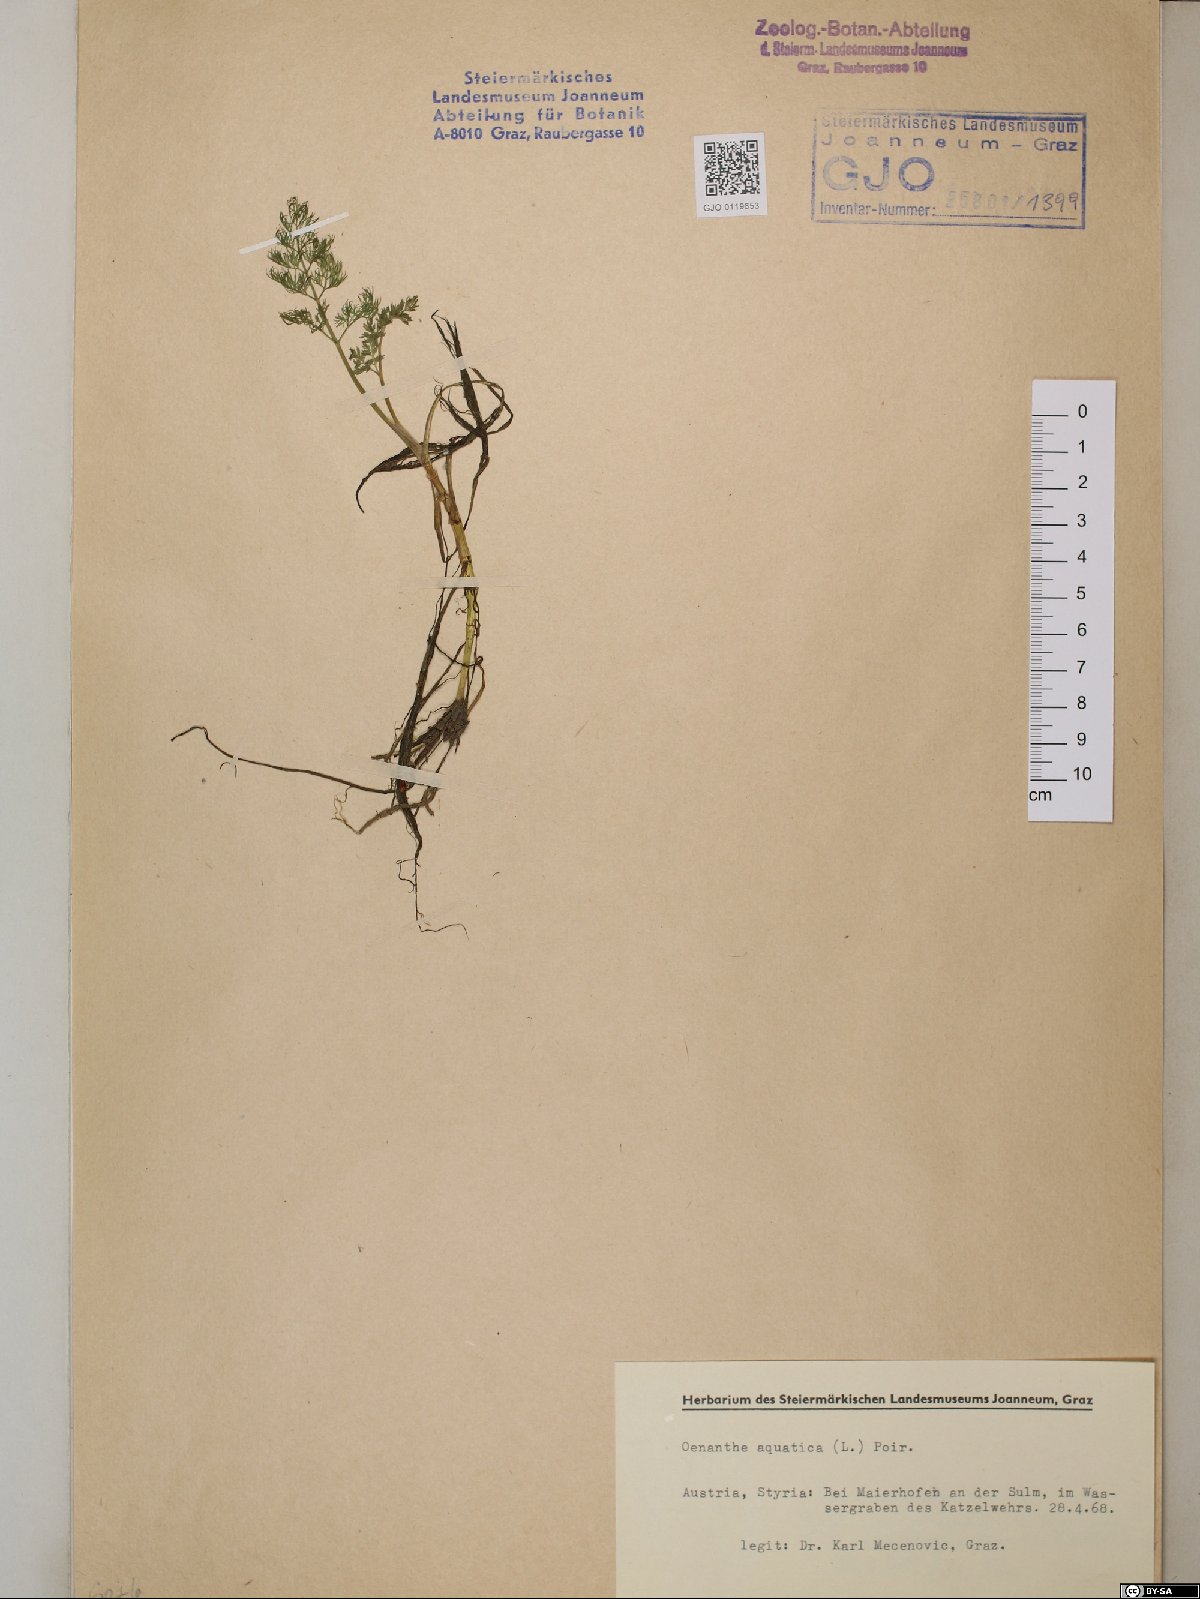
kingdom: Plantae
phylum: Tracheophyta
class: Magnoliopsida
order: Apiales
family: Apiaceae
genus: Oenanthe
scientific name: Oenanthe aquatica
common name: Fine-leaved water-dropwort
